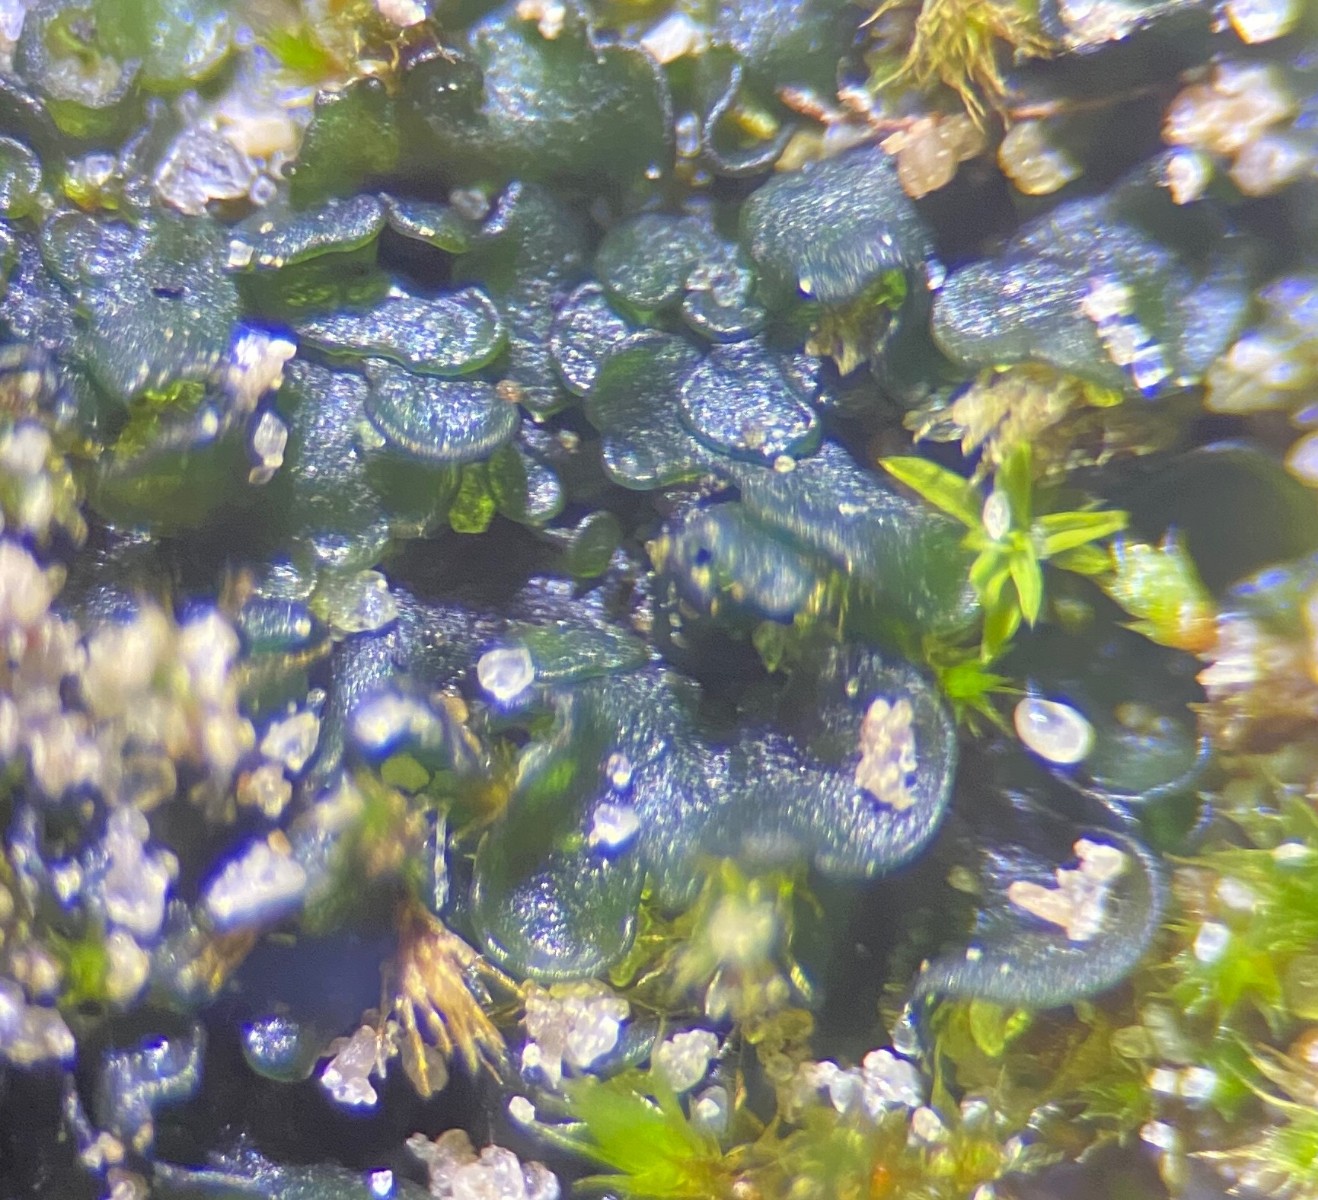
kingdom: Fungi
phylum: Ascomycota
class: Lecanoromycetes
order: Peltigerales
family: Collemataceae
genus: Blennothallia
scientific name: Blennothallia crispa
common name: kruset bævrelav
